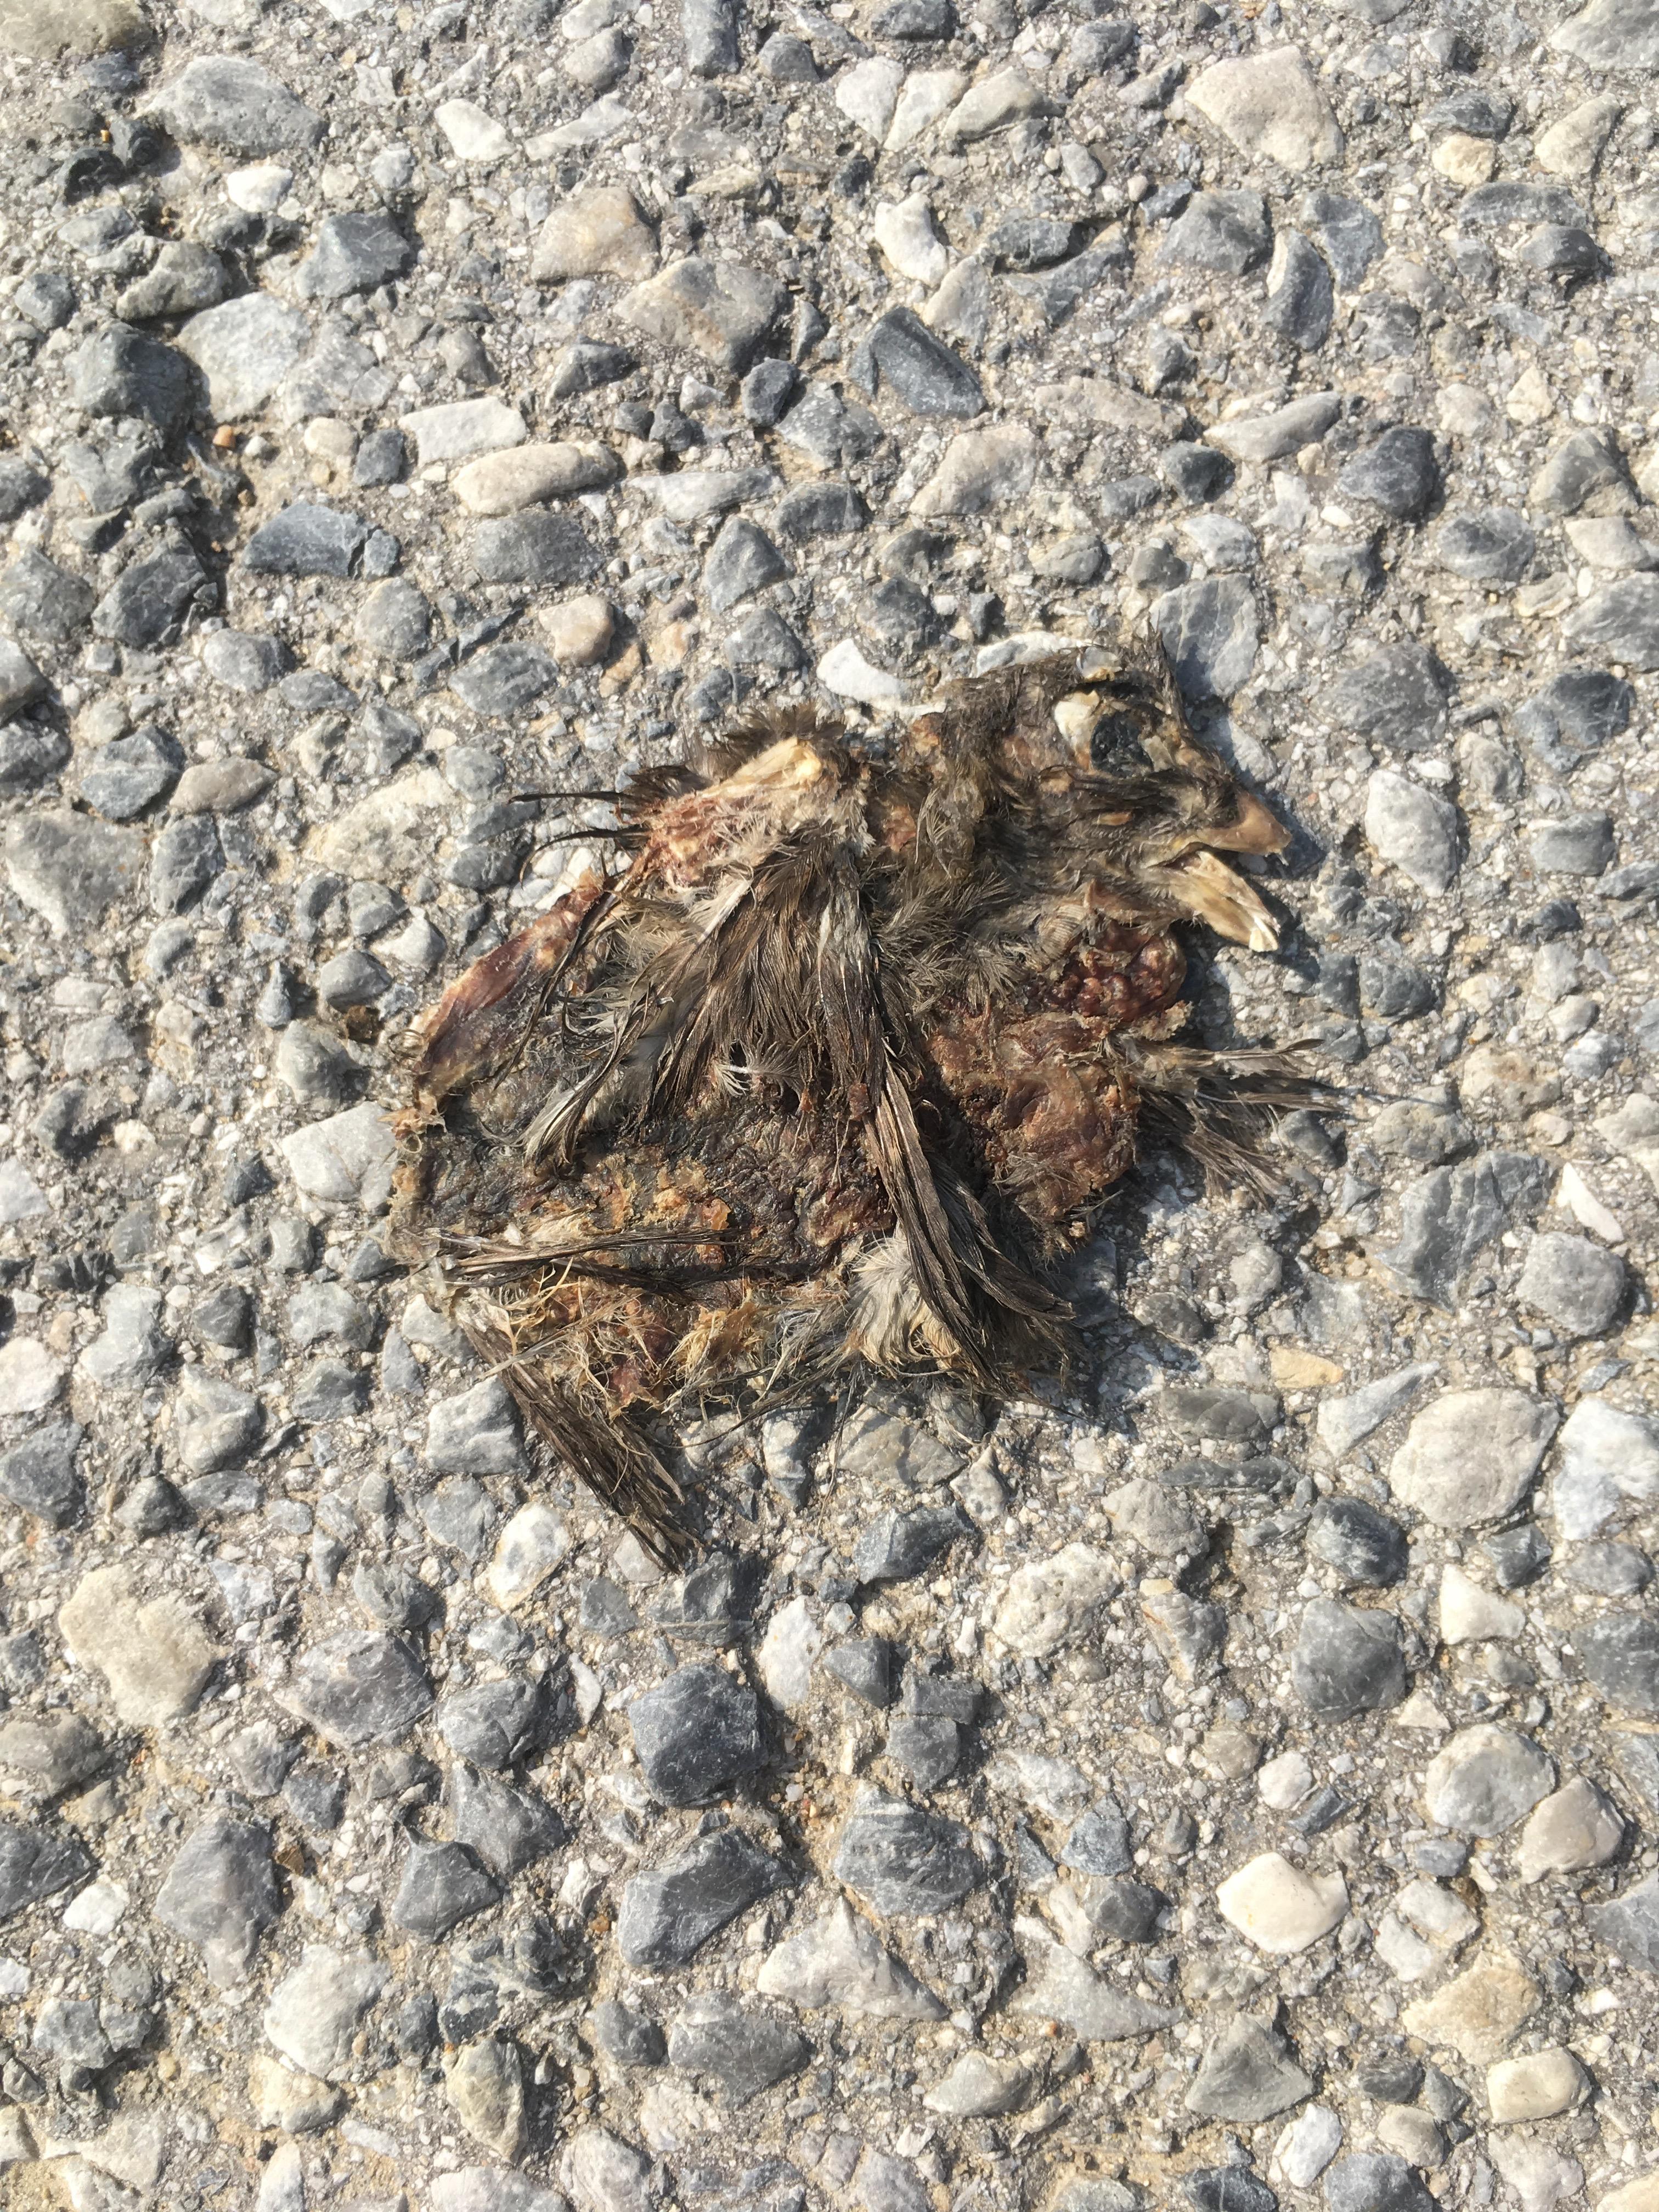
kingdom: Animalia
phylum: Chordata
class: Aves
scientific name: Aves
